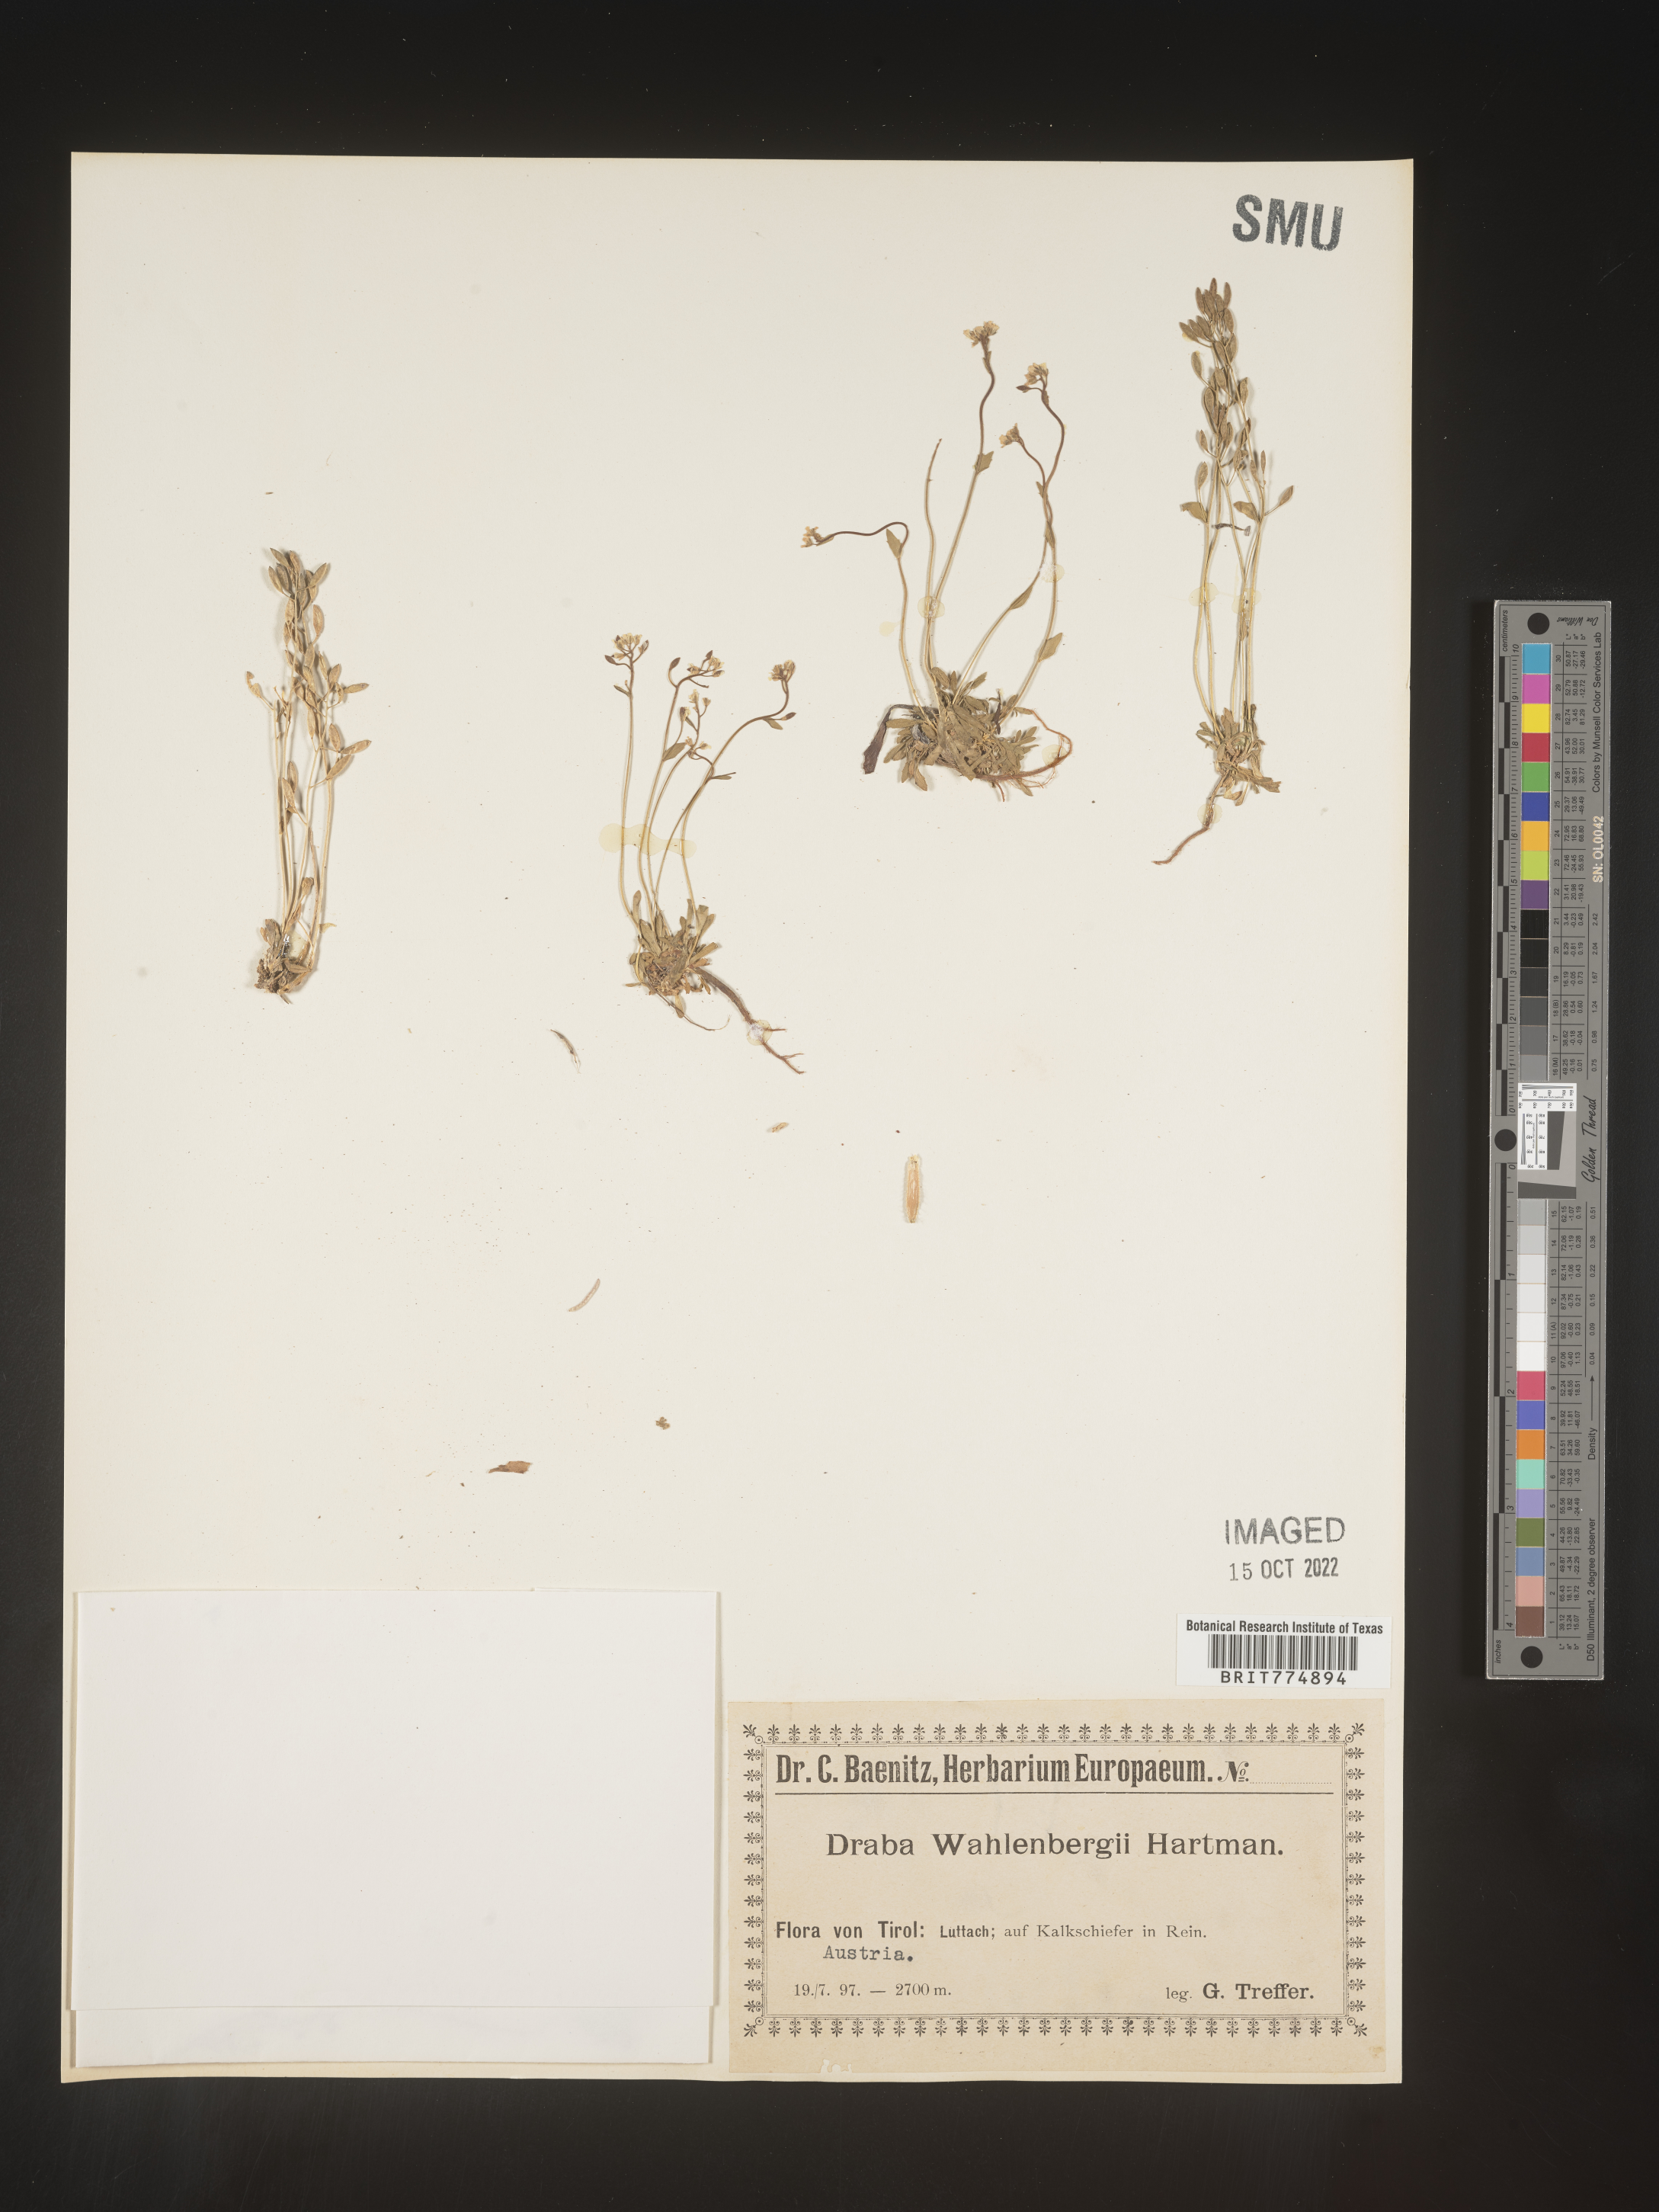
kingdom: Plantae
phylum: Tracheophyta
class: Magnoliopsida
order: Brassicales
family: Brassicaceae
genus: Draba
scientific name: Draba
